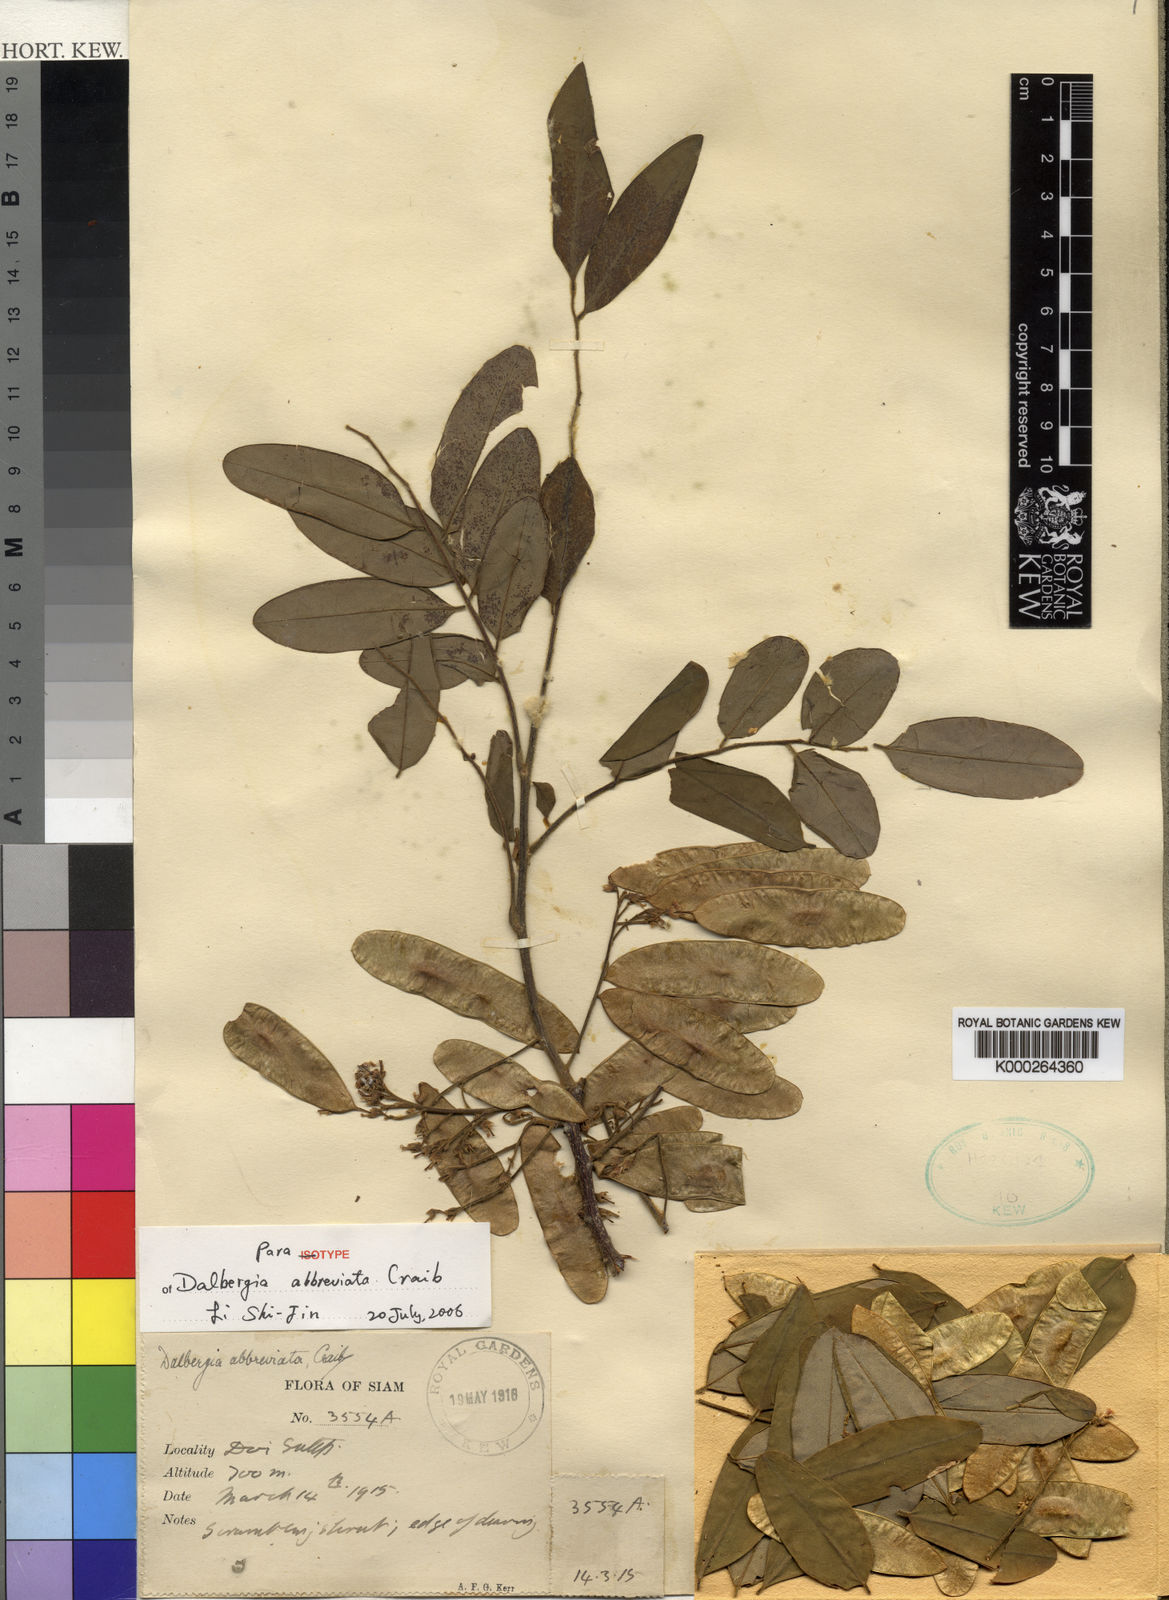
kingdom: Plantae
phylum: Tracheophyta
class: Magnoliopsida
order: Fabales
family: Fabaceae
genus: Dalbergia
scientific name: Dalbergia velutina
